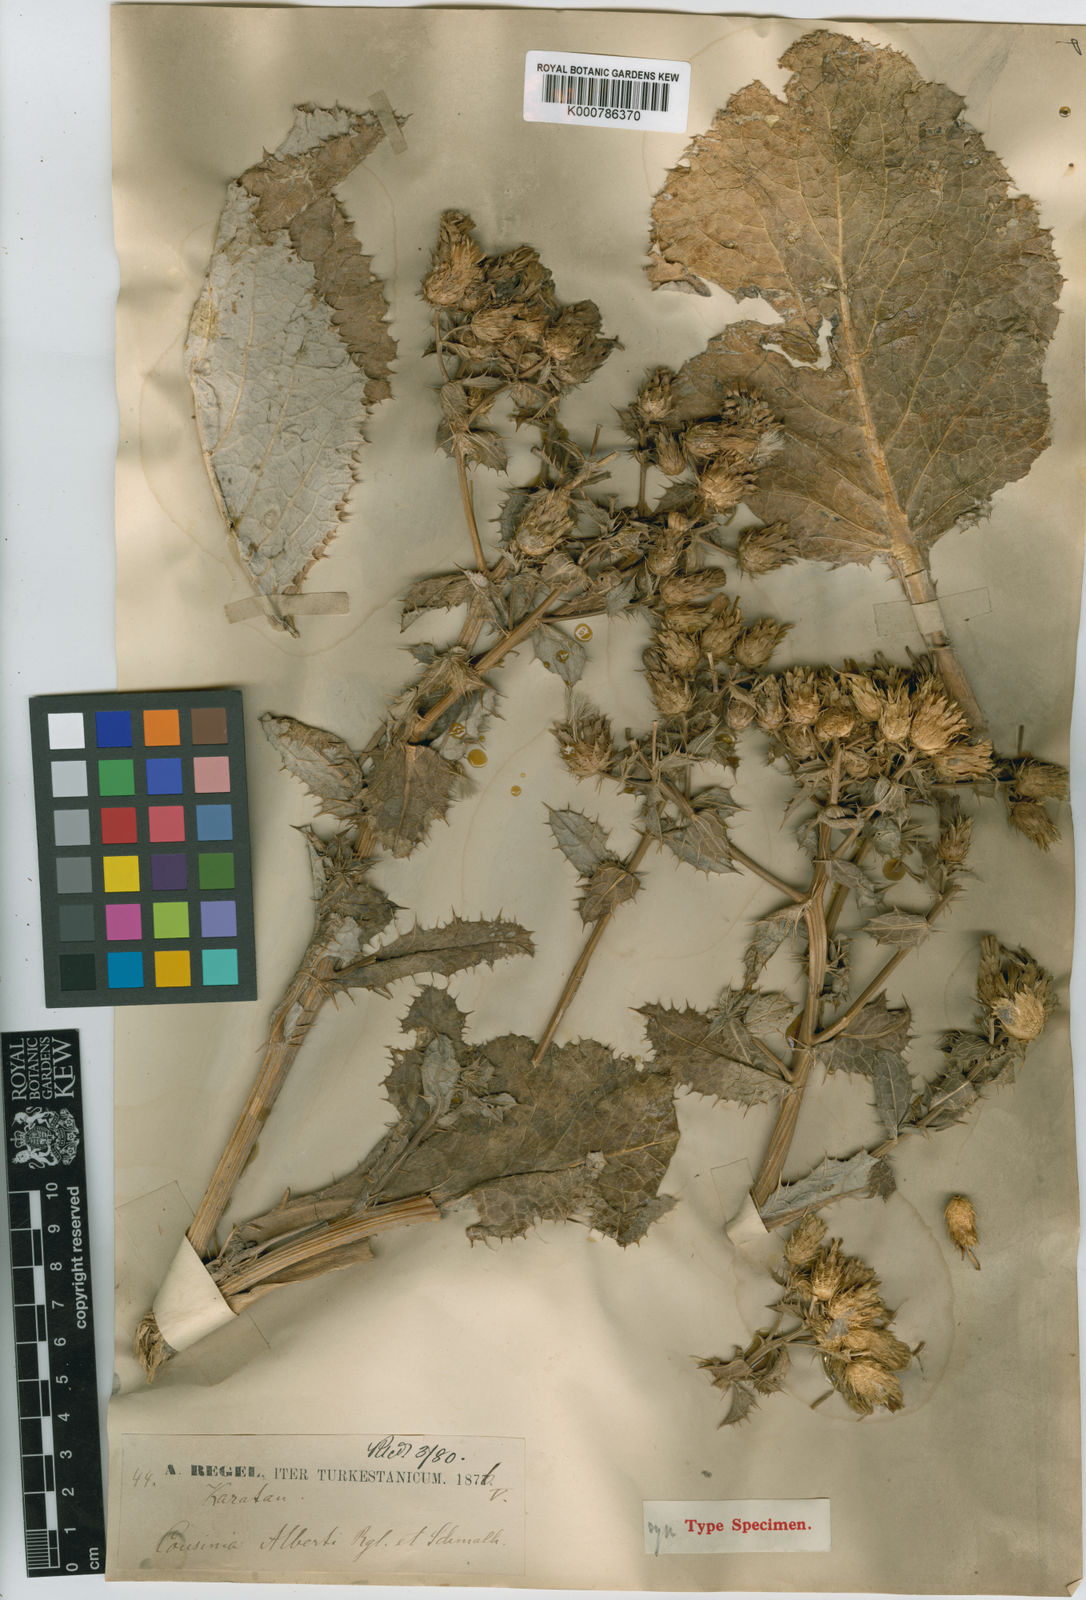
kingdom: Plantae
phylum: Tracheophyta
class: Magnoliopsida
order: Asterales
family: Asteraceae
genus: Arctium
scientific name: Arctium alberti
